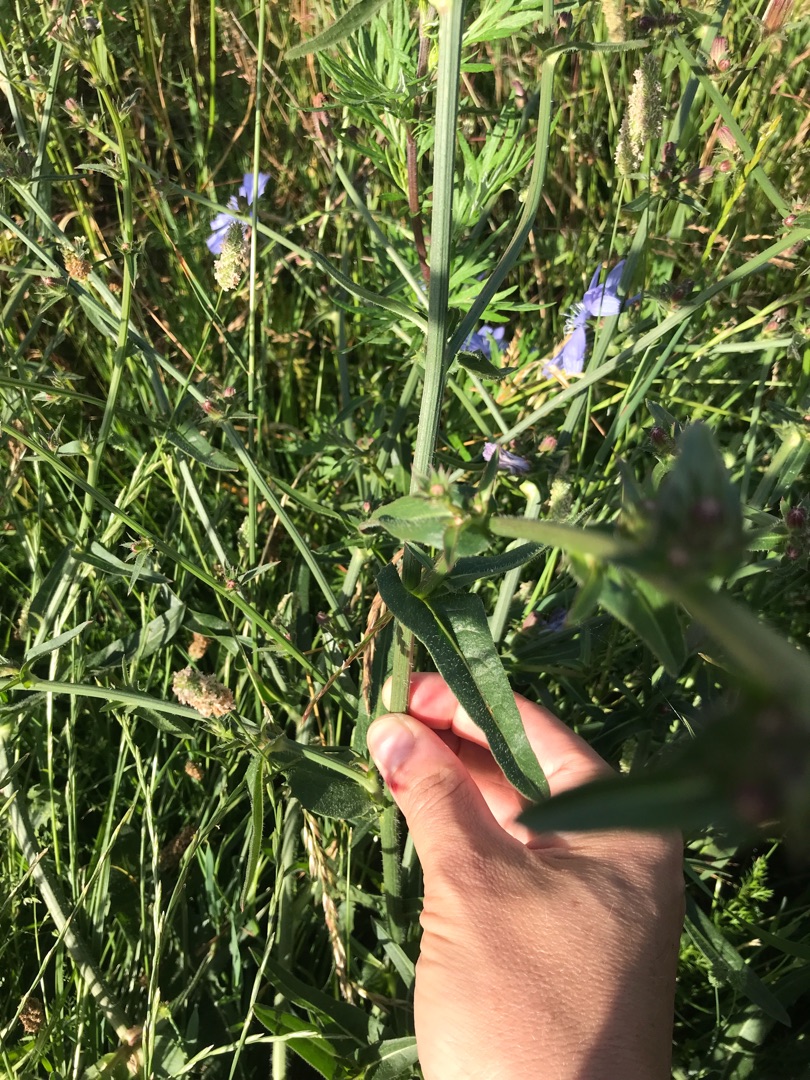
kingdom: Plantae
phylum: Tracheophyta
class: Magnoliopsida
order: Asterales
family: Asteraceae
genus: Cichorium
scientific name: Cichorium intybus
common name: Cikorie
